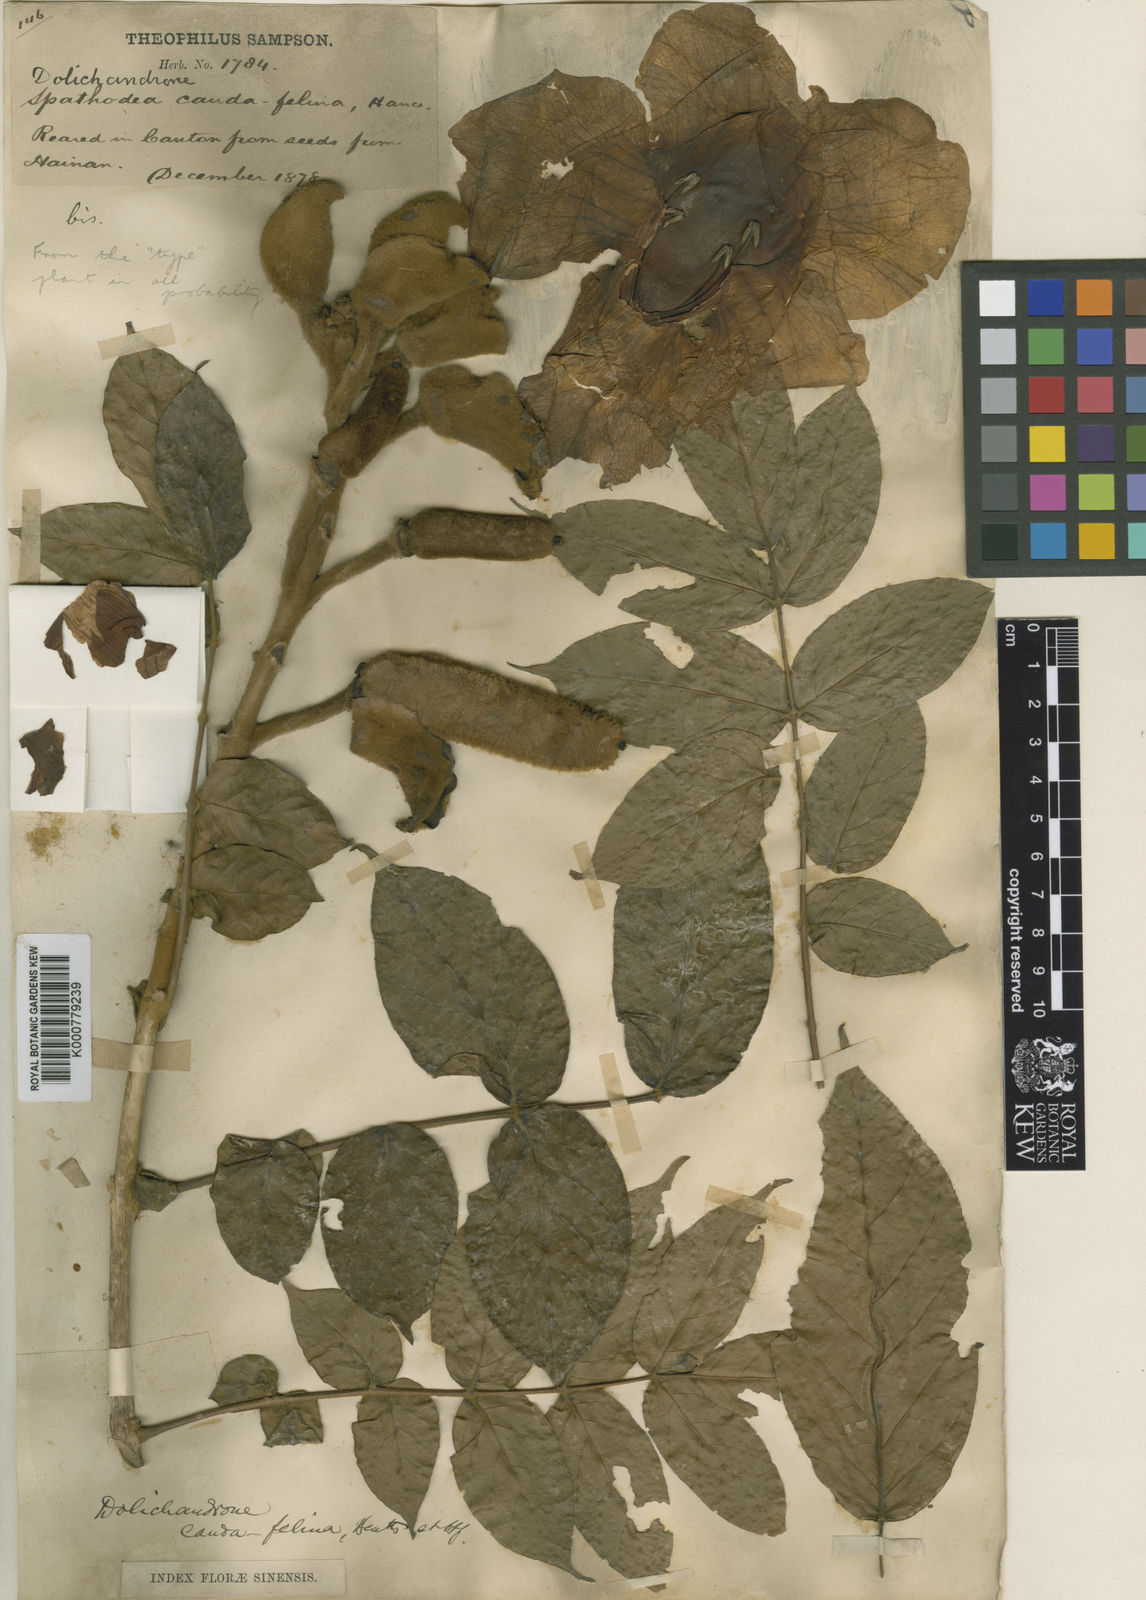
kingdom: Plantae
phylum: Tracheophyta
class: Magnoliopsida
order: Lamiales
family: Bignoniaceae
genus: Markhamia
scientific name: Markhamia stipulata
